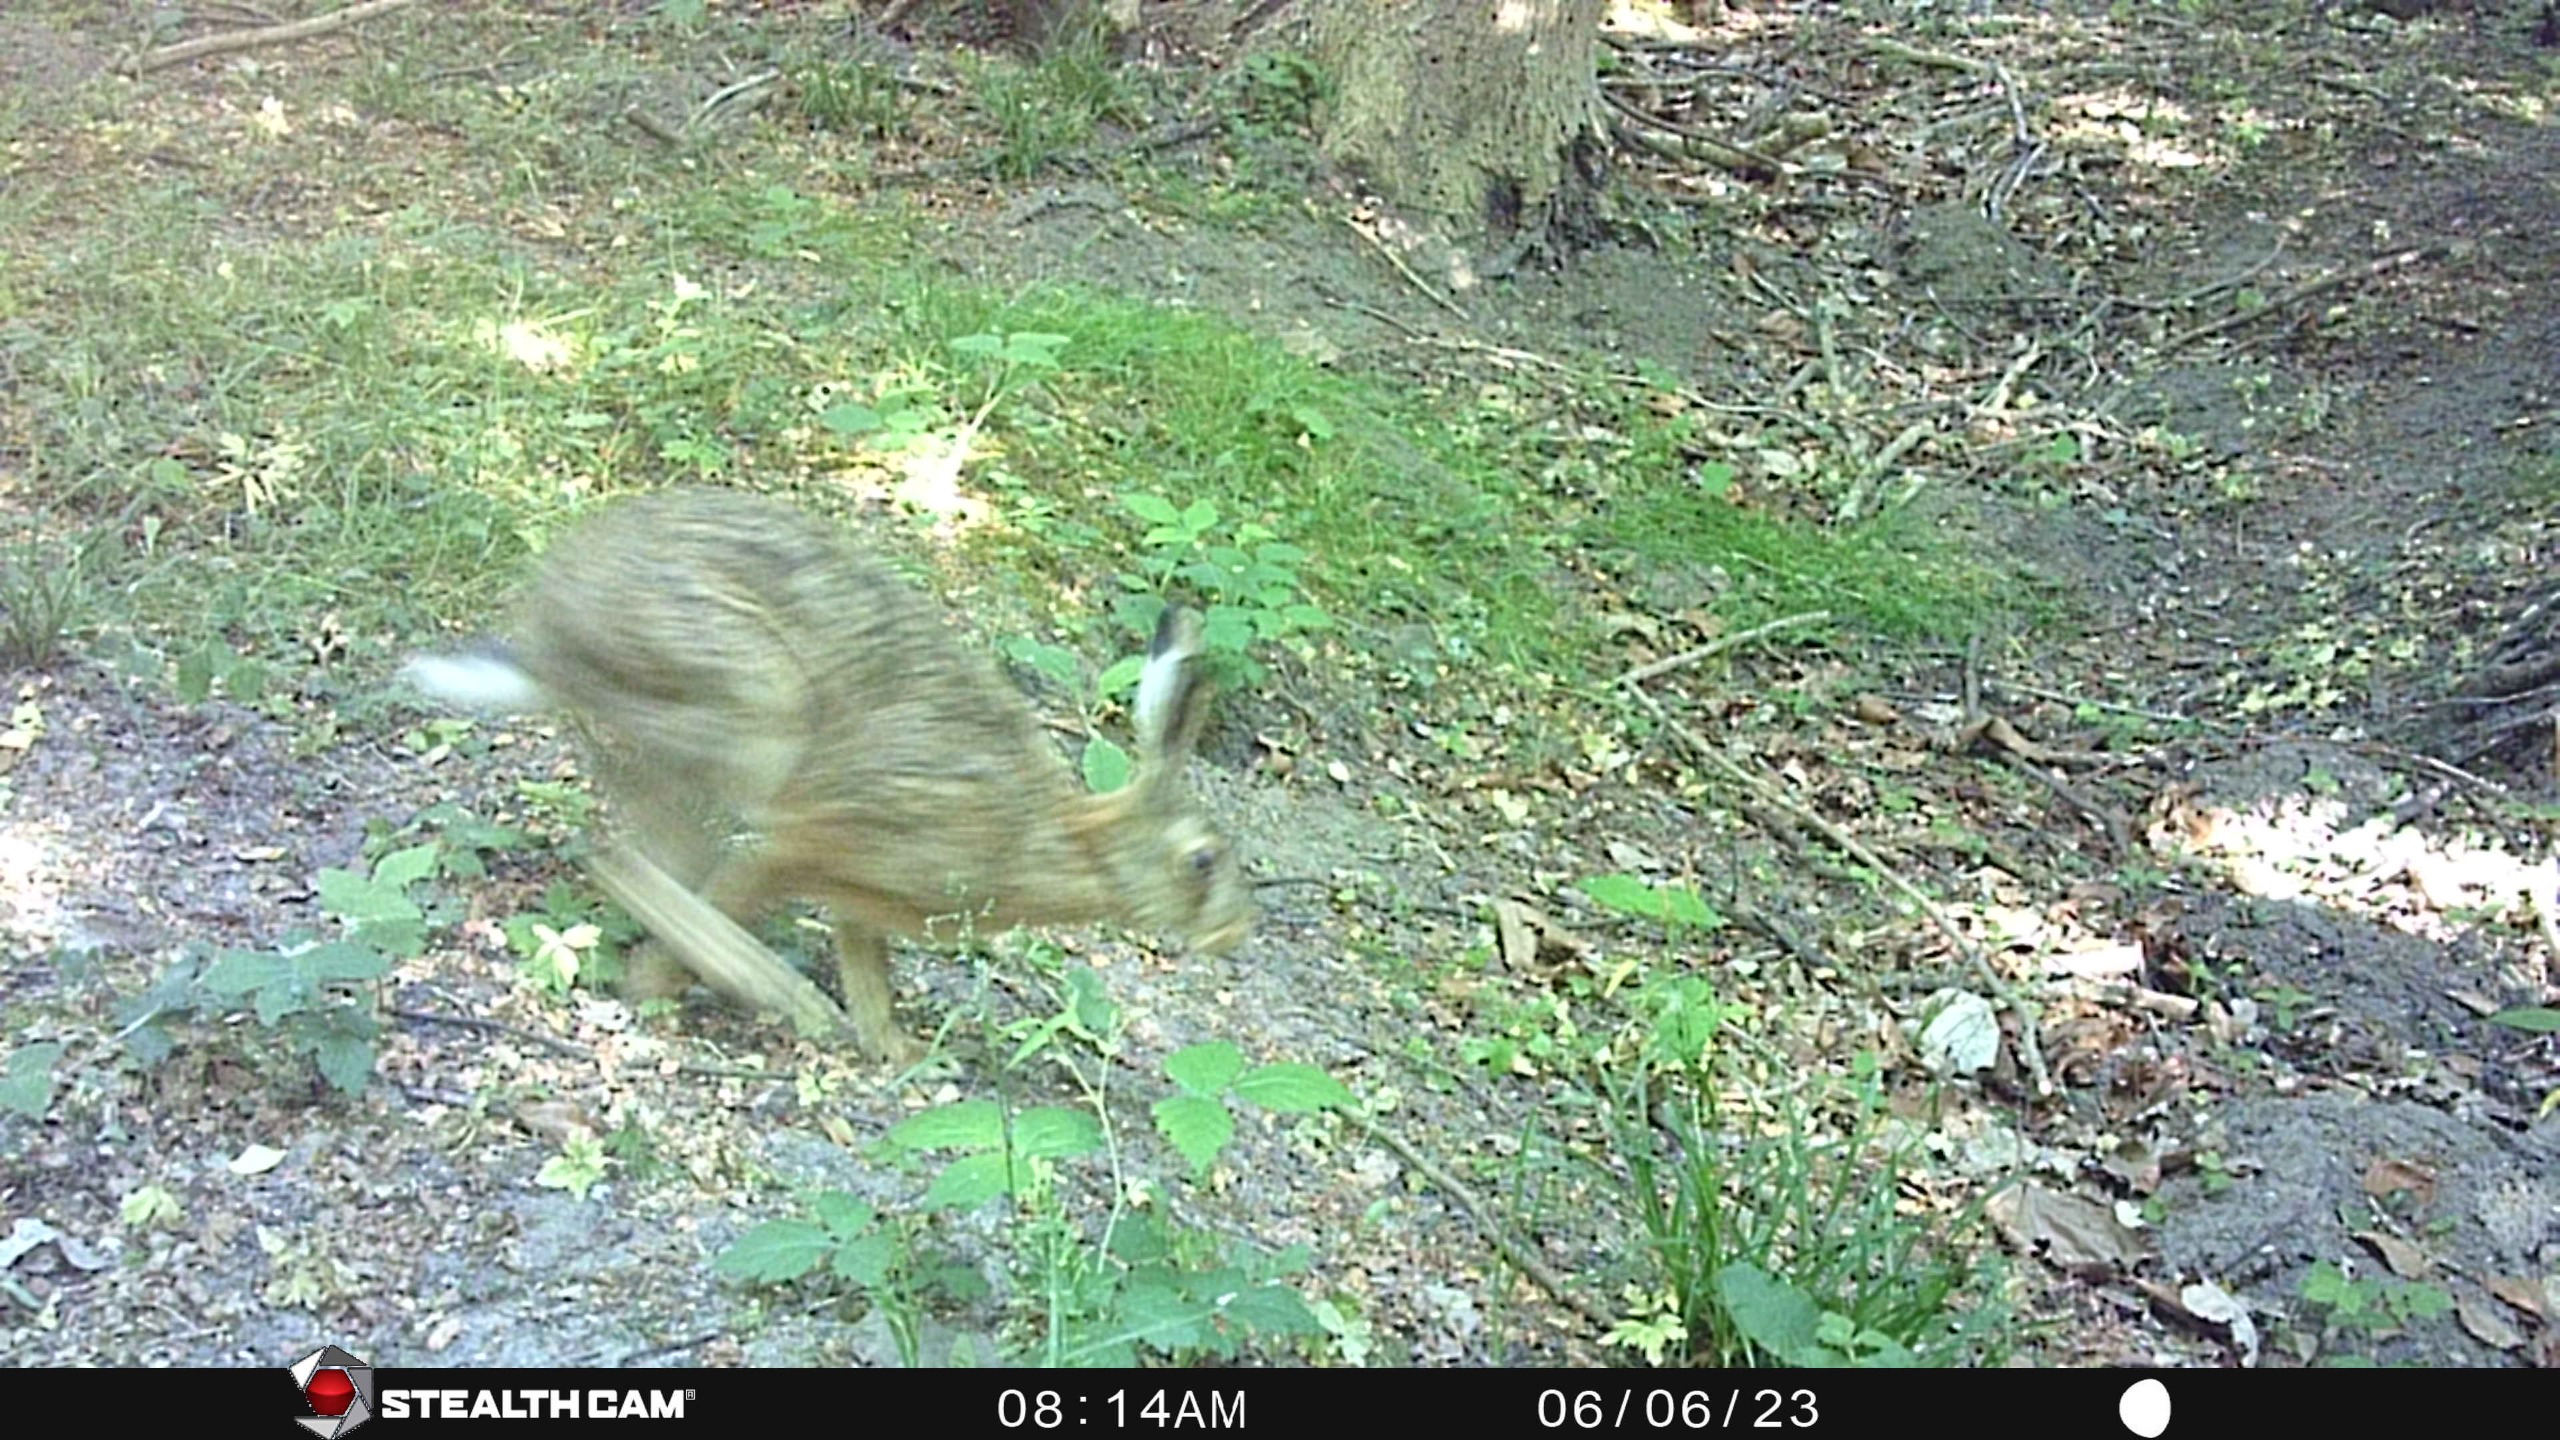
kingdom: Animalia
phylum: Chordata
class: Mammalia
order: Lagomorpha
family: Leporidae
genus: Lepus
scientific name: Lepus europaeus
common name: Hare
